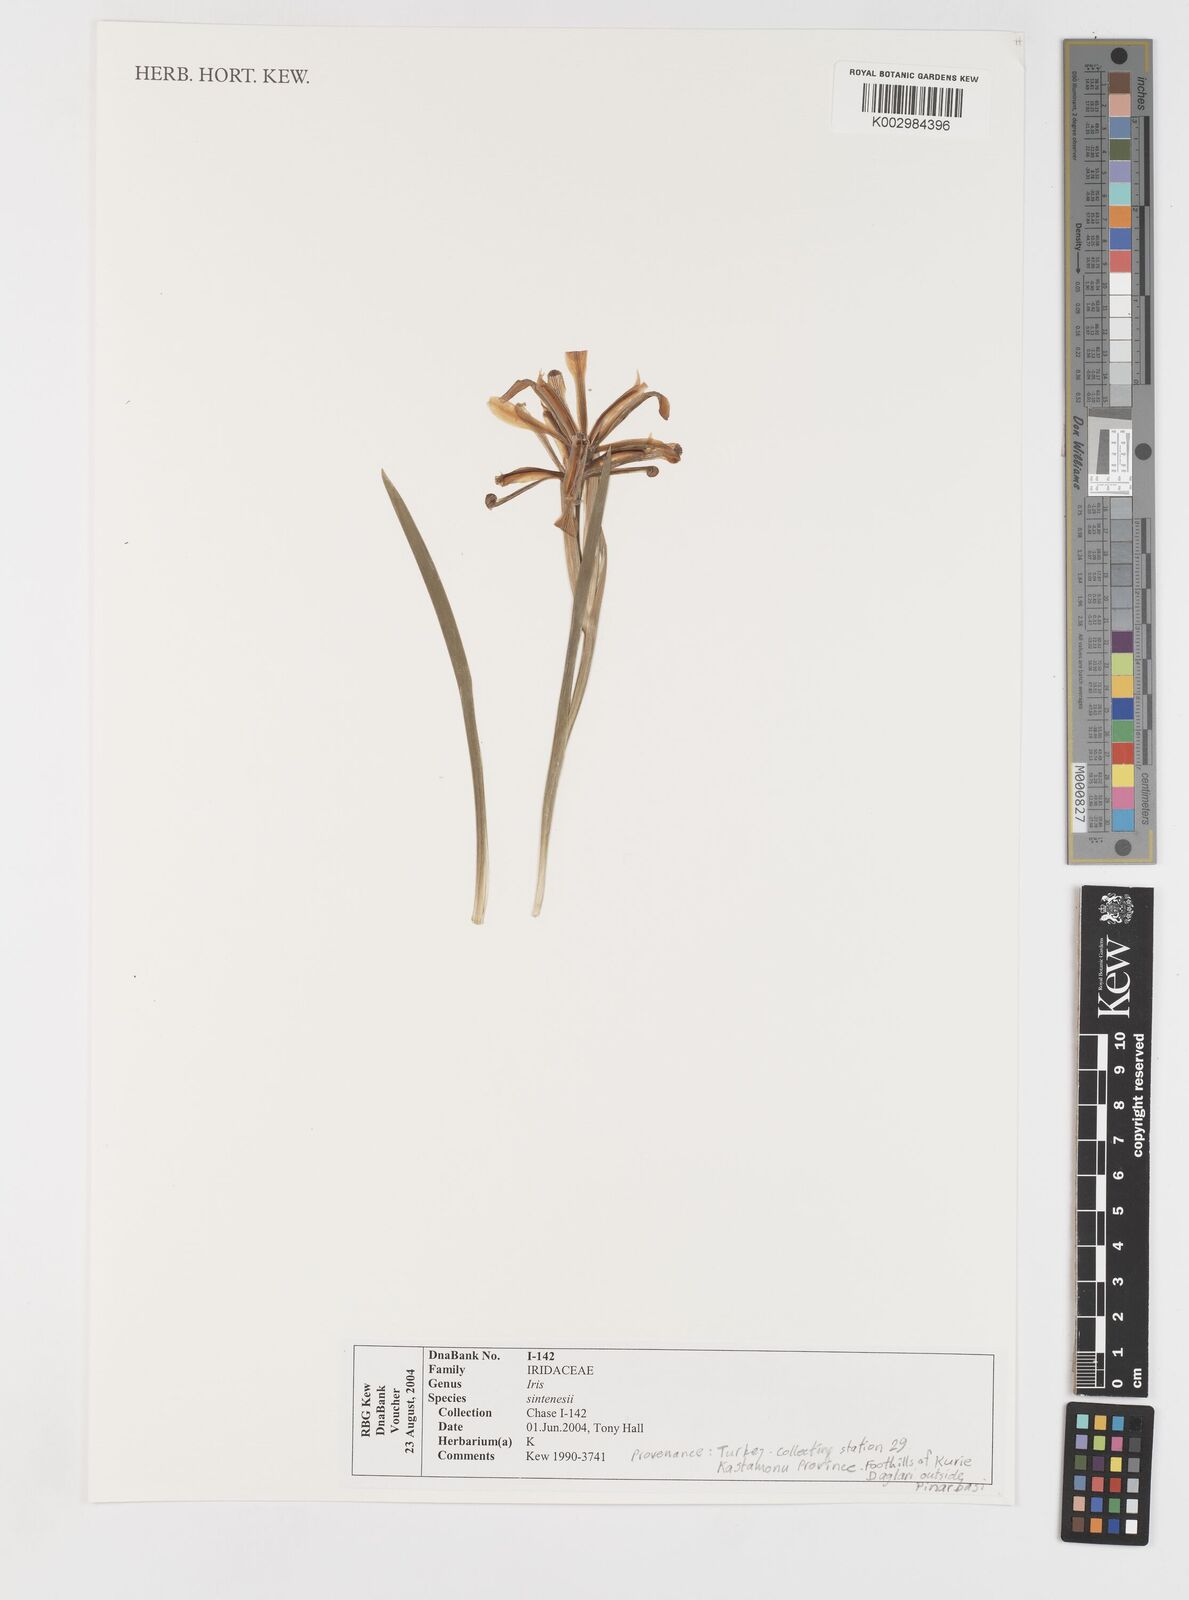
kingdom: Plantae
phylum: Tracheophyta
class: Liliopsida
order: Asparagales
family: Iridaceae
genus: Iris
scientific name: Iris sintenisii
